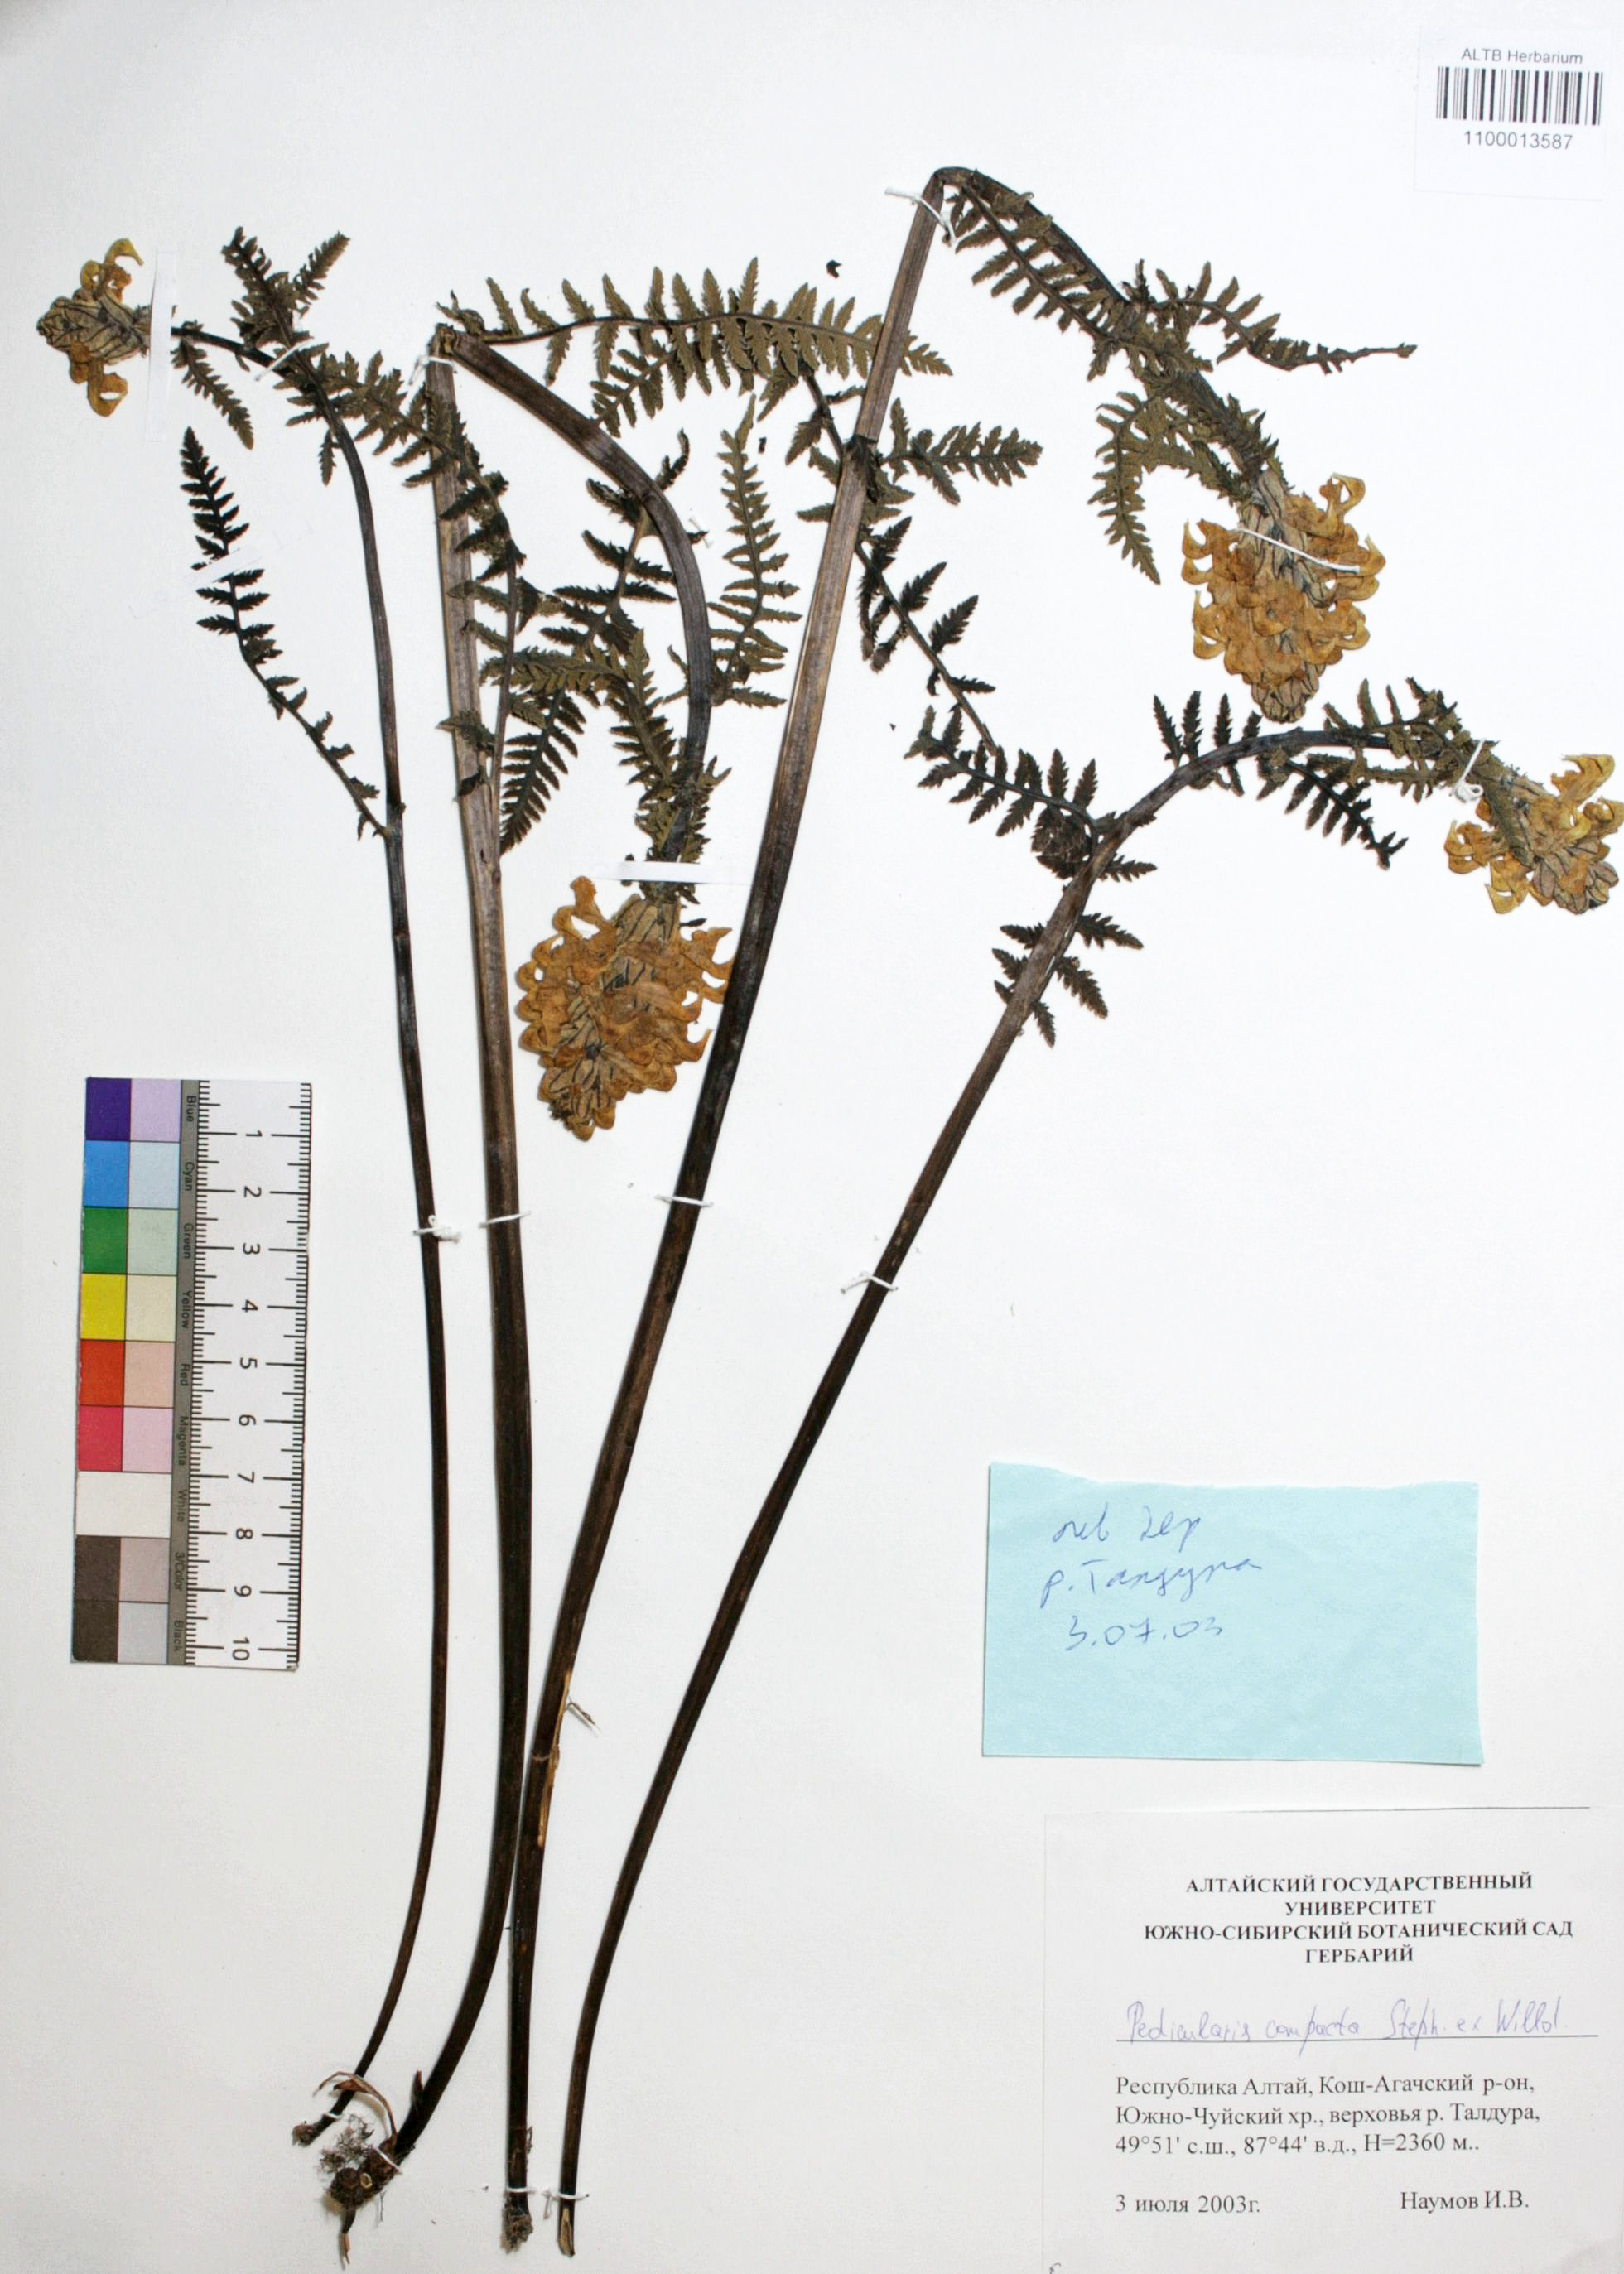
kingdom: Plantae
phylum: Tracheophyta
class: Magnoliopsida
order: Lamiales
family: Orobanchaceae
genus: Pedicularis
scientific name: Pedicularis compacta
